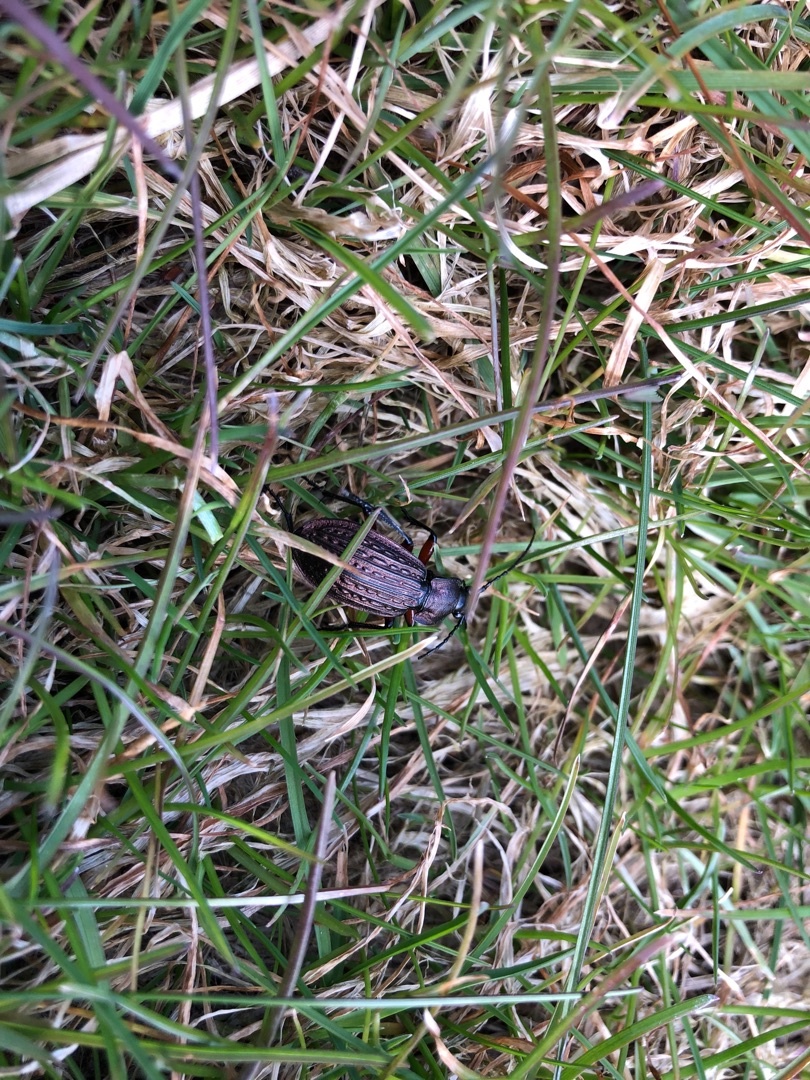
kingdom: Animalia
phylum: Arthropoda
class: Insecta
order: Coleoptera
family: Carabidae
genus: Carabus
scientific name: Carabus granulatus
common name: Kornet løber
